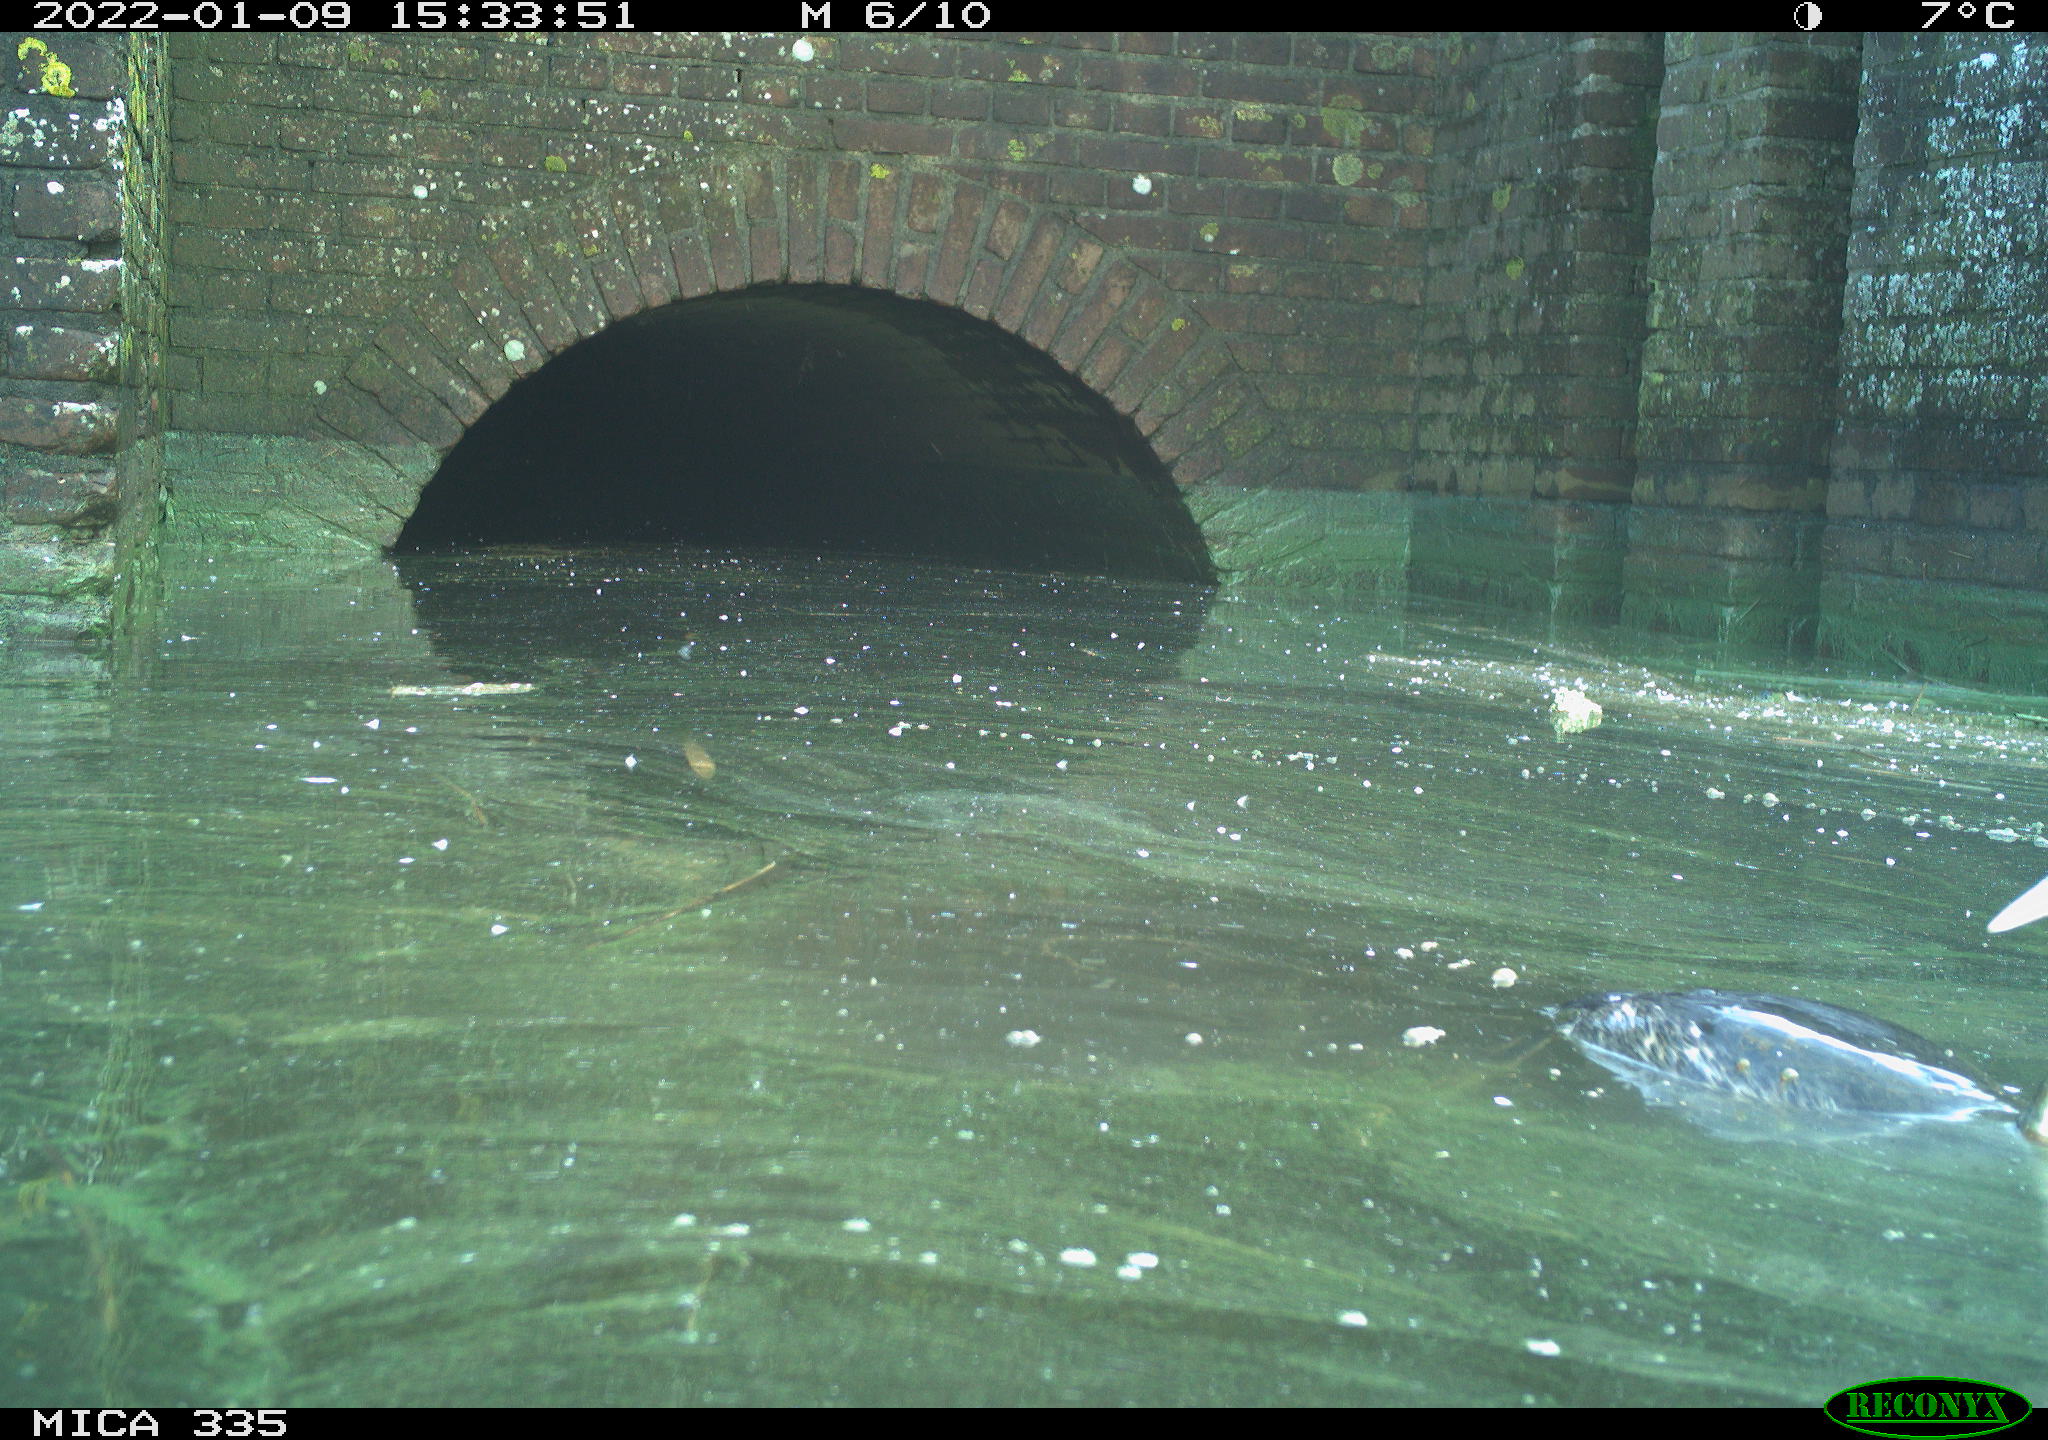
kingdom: Animalia
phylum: Chordata
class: Aves
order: Podicipediformes
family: Podicipedidae
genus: Podiceps
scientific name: Podiceps cristatus
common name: Great crested grebe
